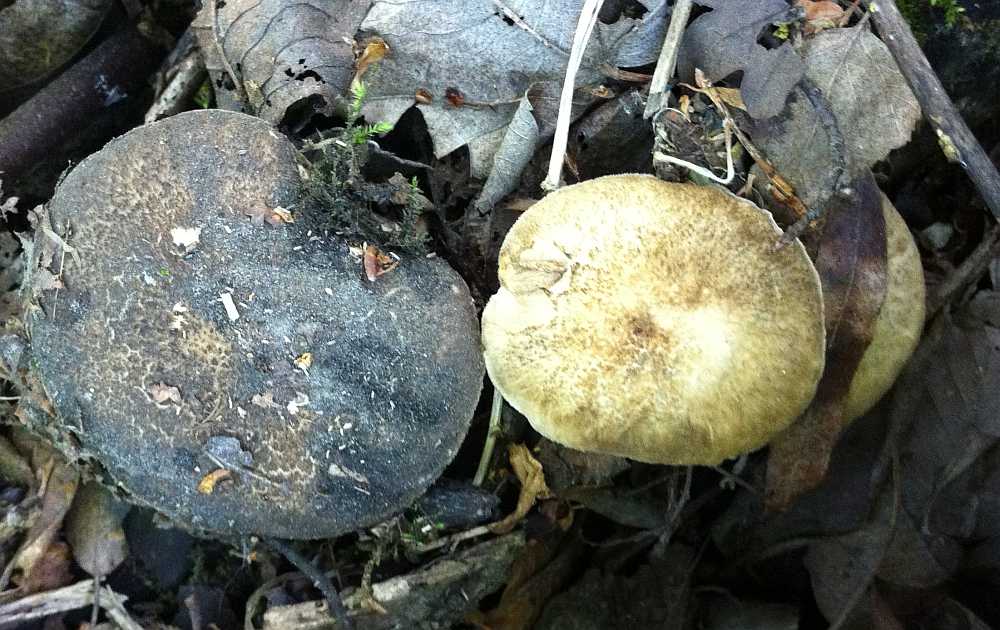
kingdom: Fungi
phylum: Basidiomycota
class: Agaricomycetes
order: Polyporales
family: Polyporaceae
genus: Lentinus
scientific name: Lentinus substrictus
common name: forårs-stilkporesvamp
